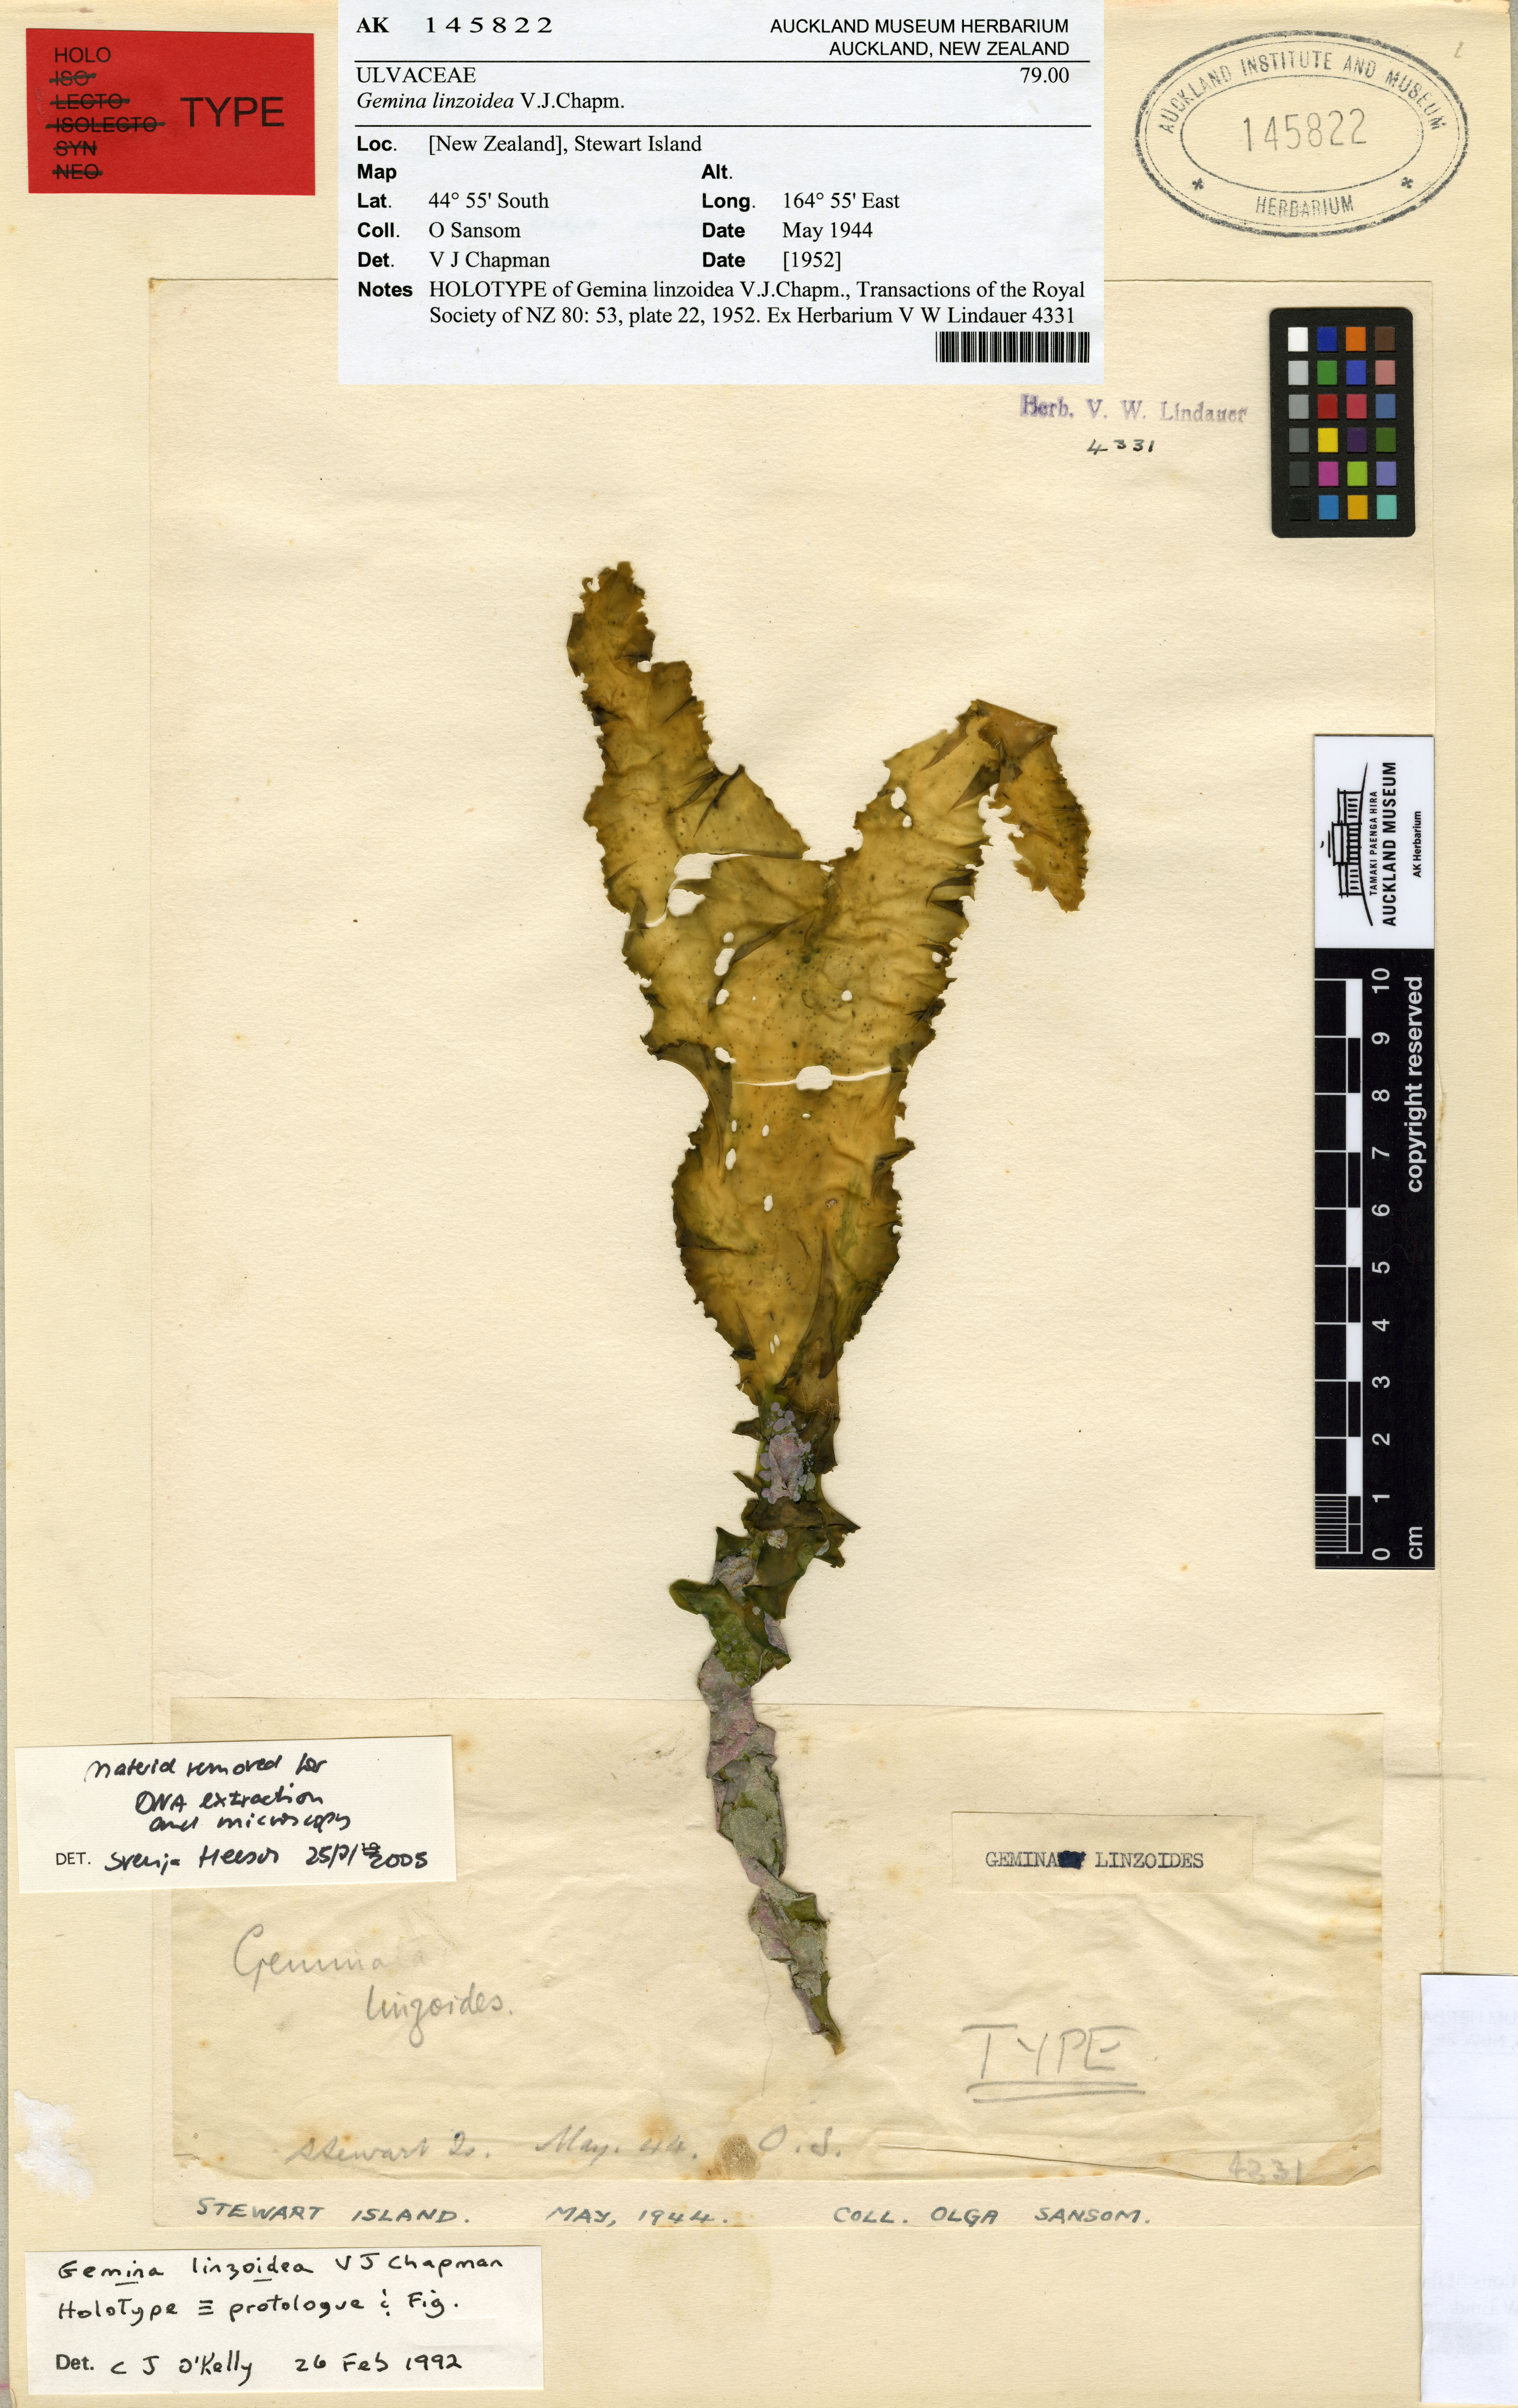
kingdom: Plantae
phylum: Chlorophyta
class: Ulvophyceae
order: Ulvales
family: Ulvaceae
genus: Gemina
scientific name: Gemina
